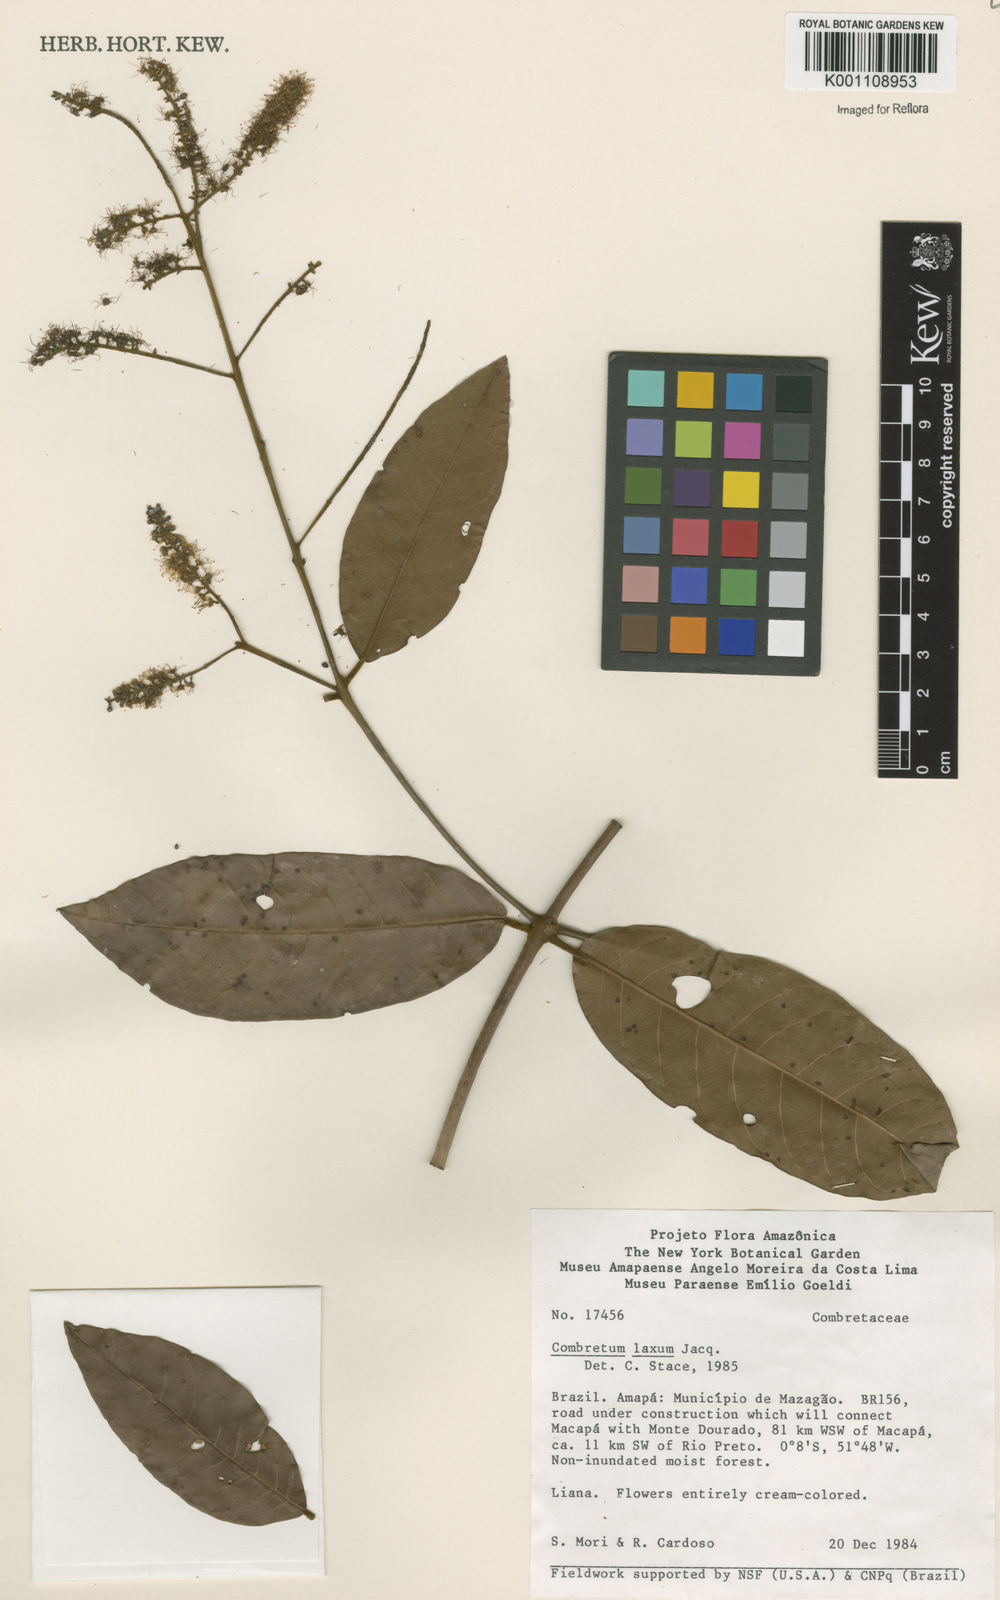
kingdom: Plantae
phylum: Tracheophyta
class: Magnoliopsida
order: Myrtales
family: Combretaceae
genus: Combretum
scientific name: Combretum laxum
